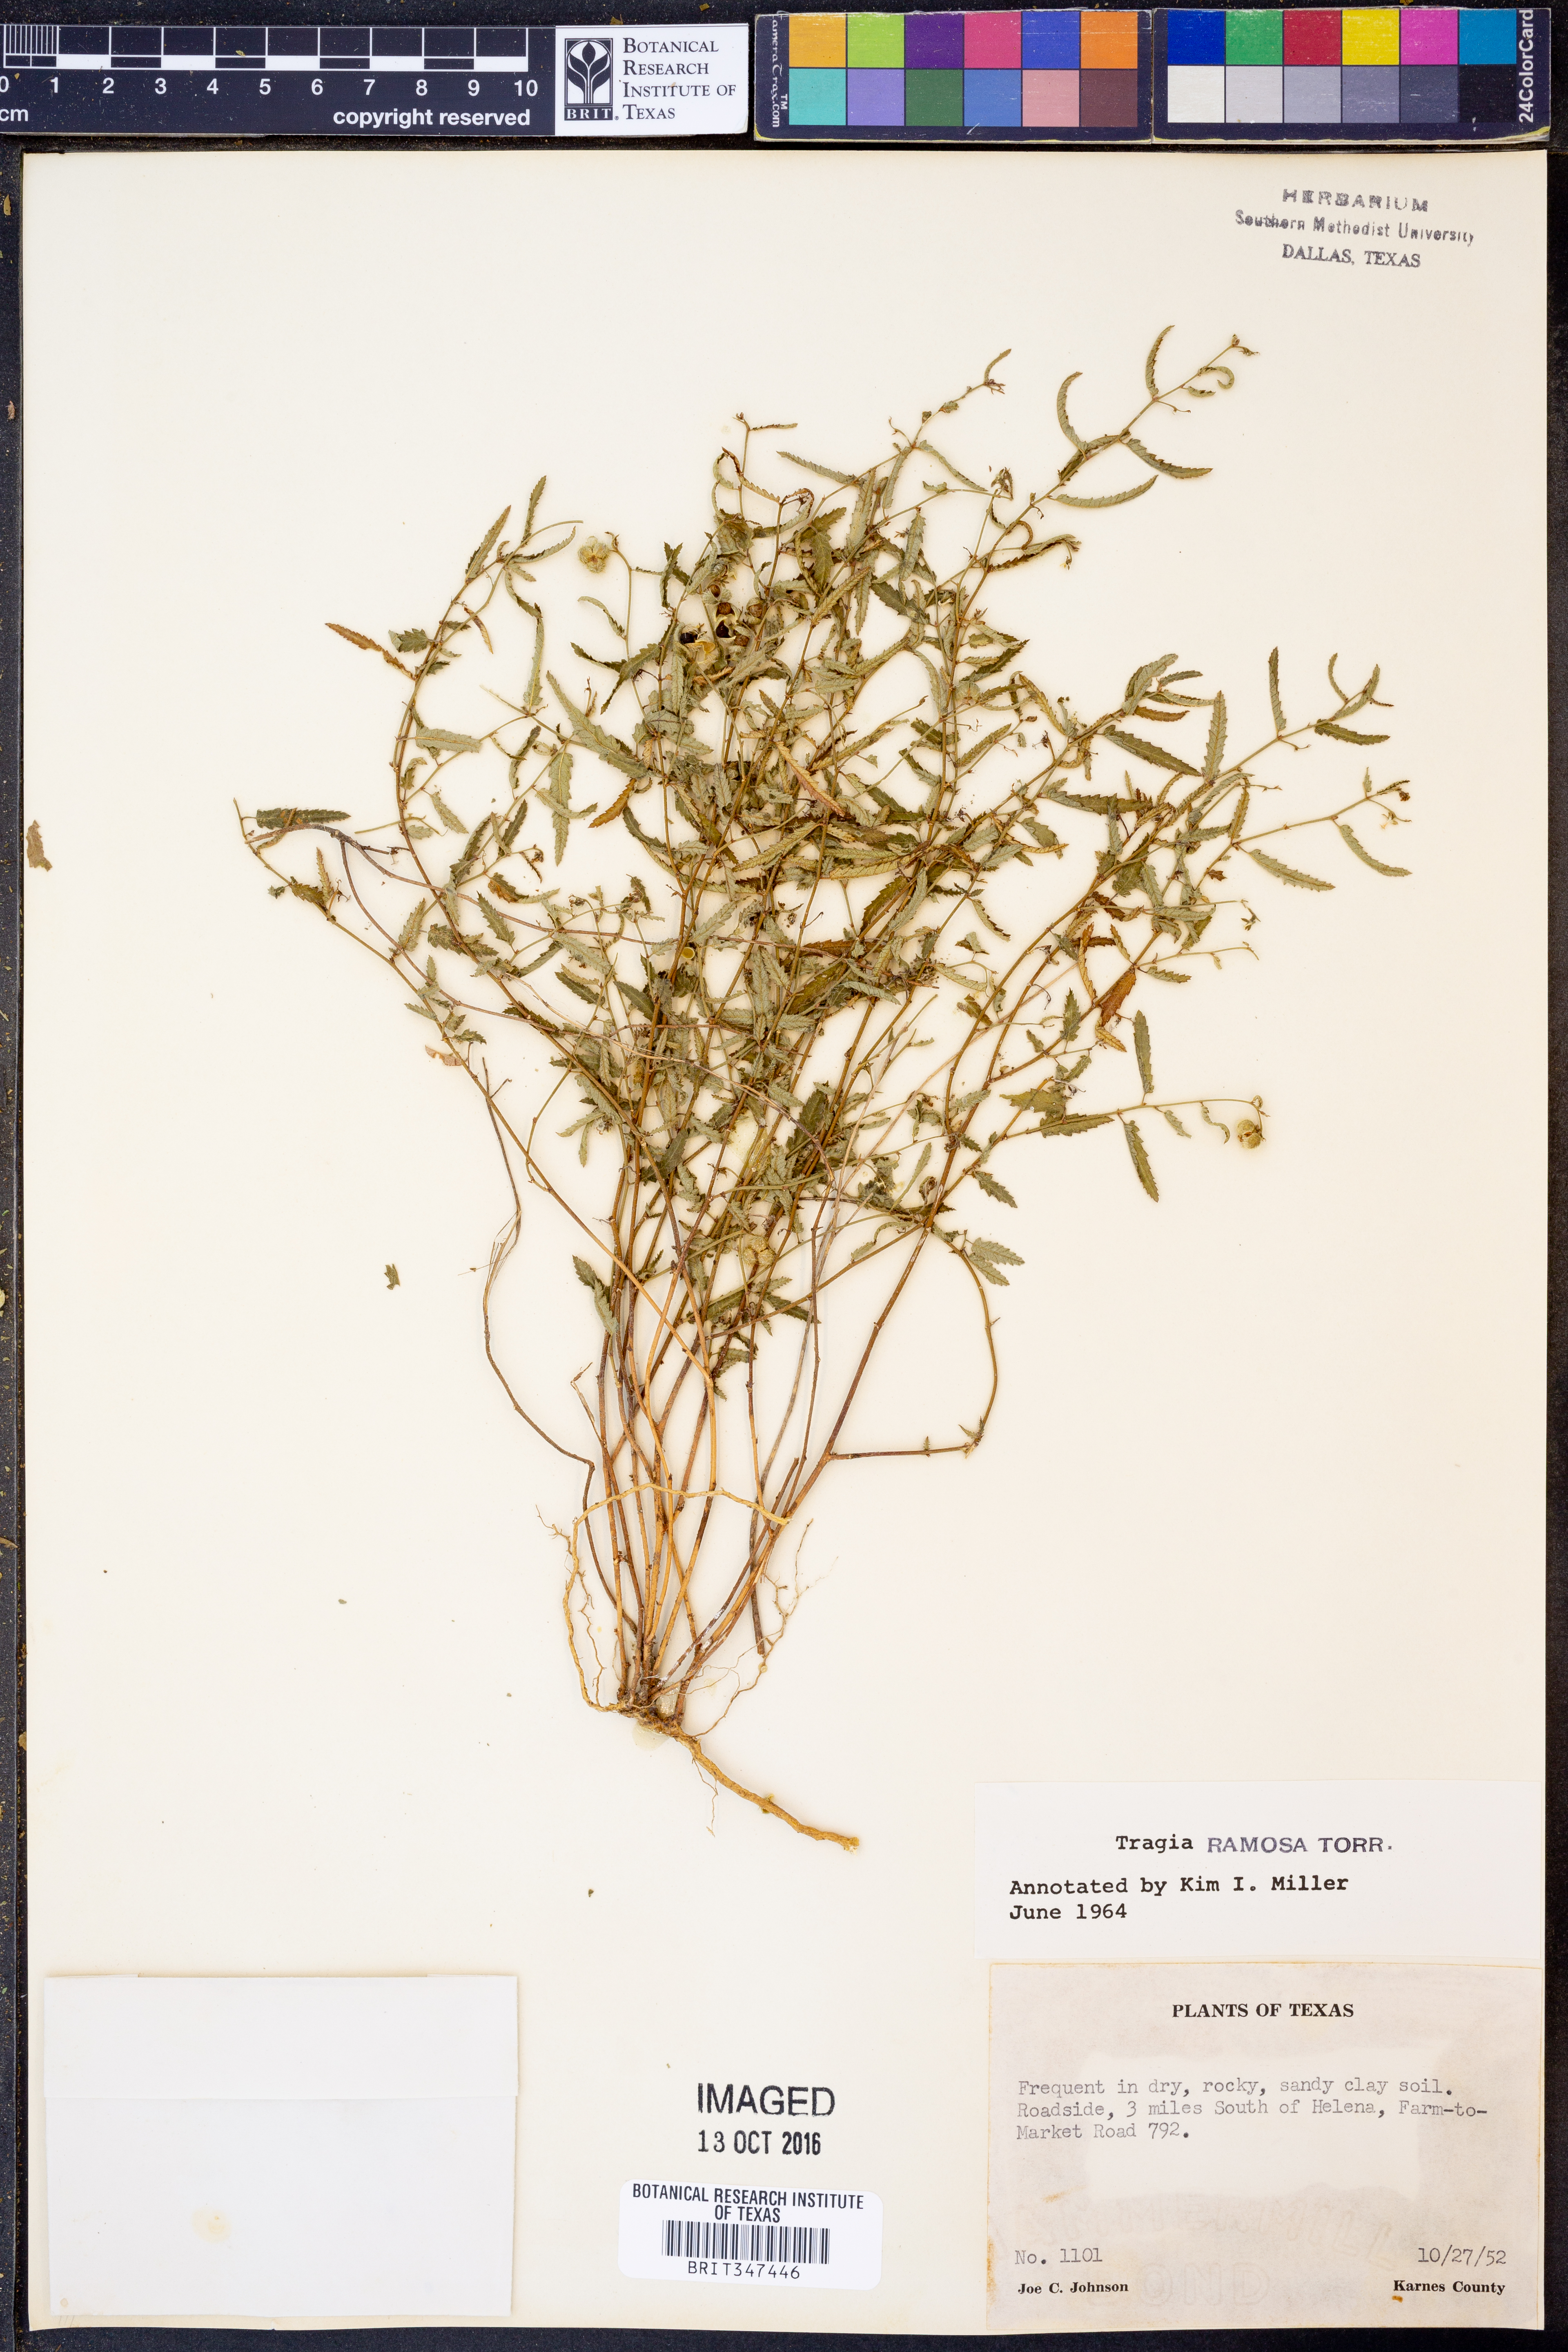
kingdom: Plantae
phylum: Tracheophyta
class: Magnoliopsida
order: Malpighiales
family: Euphorbiaceae
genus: Tragia
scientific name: Tragia ramosa
